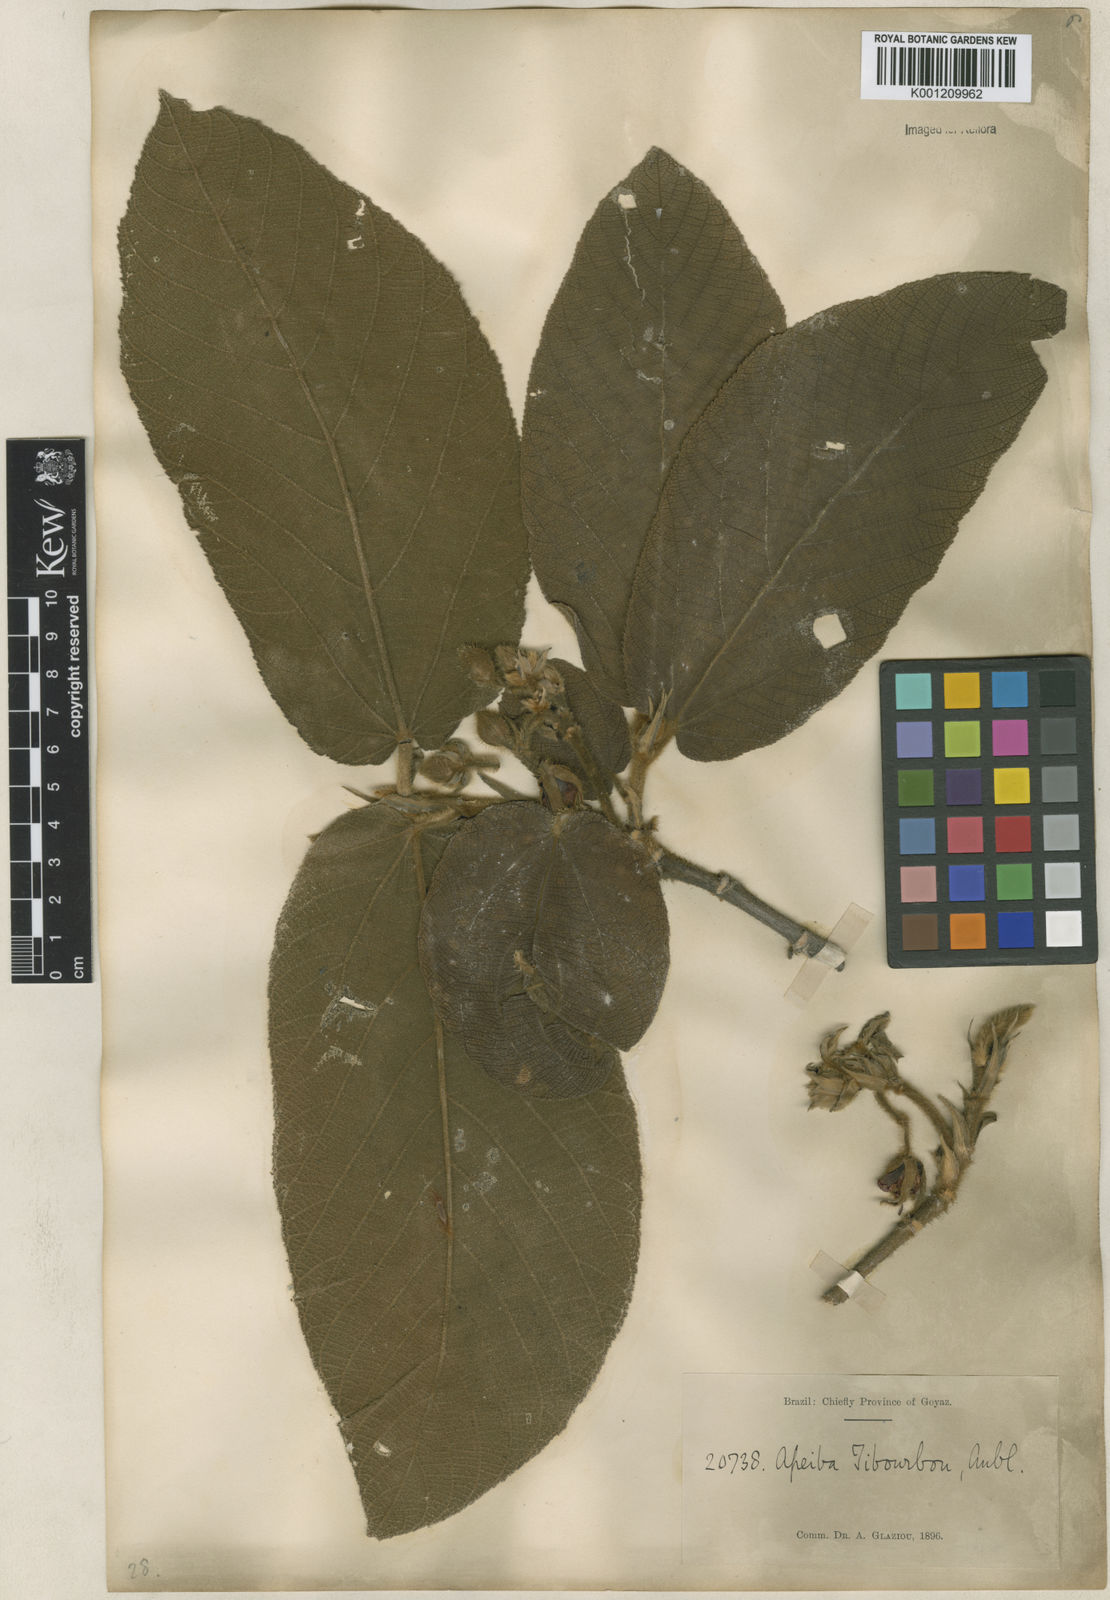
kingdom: Plantae
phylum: Tracheophyta
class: Magnoliopsida
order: Malvales
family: Malvaceae
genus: Apeiba
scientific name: Apeiba tibourbou
